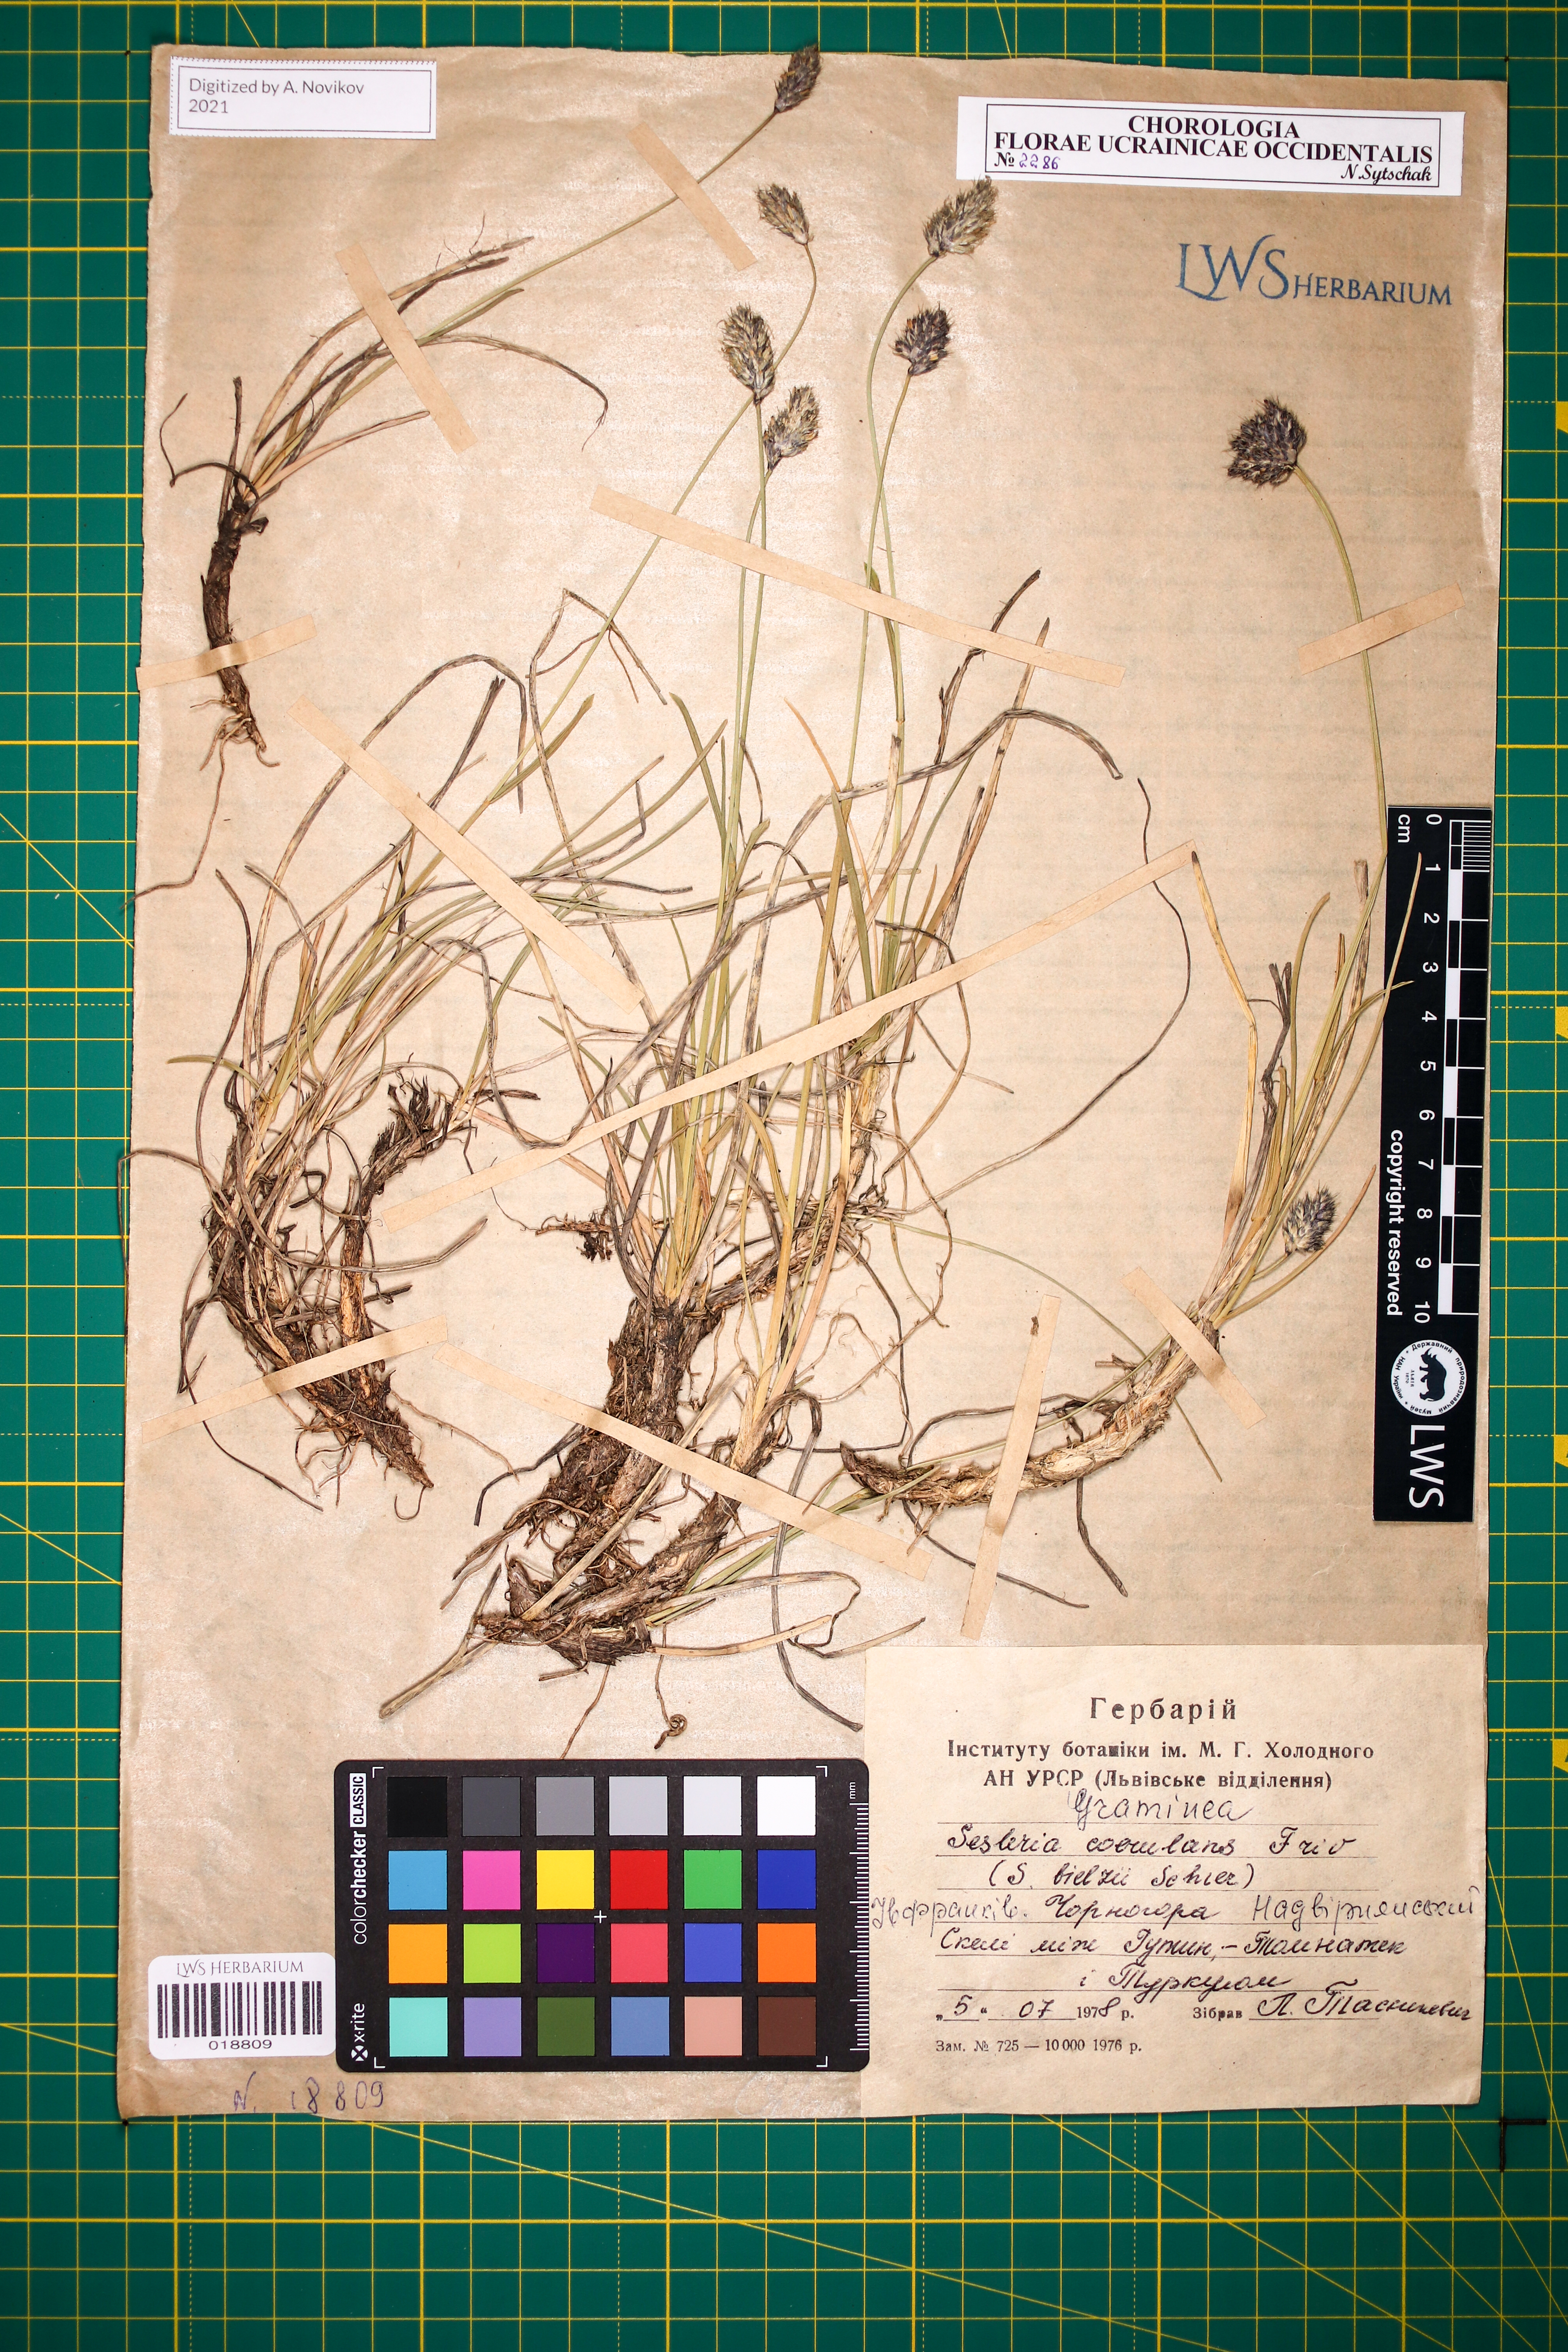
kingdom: Plantae
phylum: Tracheophyta
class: Liliopsida
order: Poales
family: Poaceae
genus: Sesleria
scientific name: Sesleria bielzii
